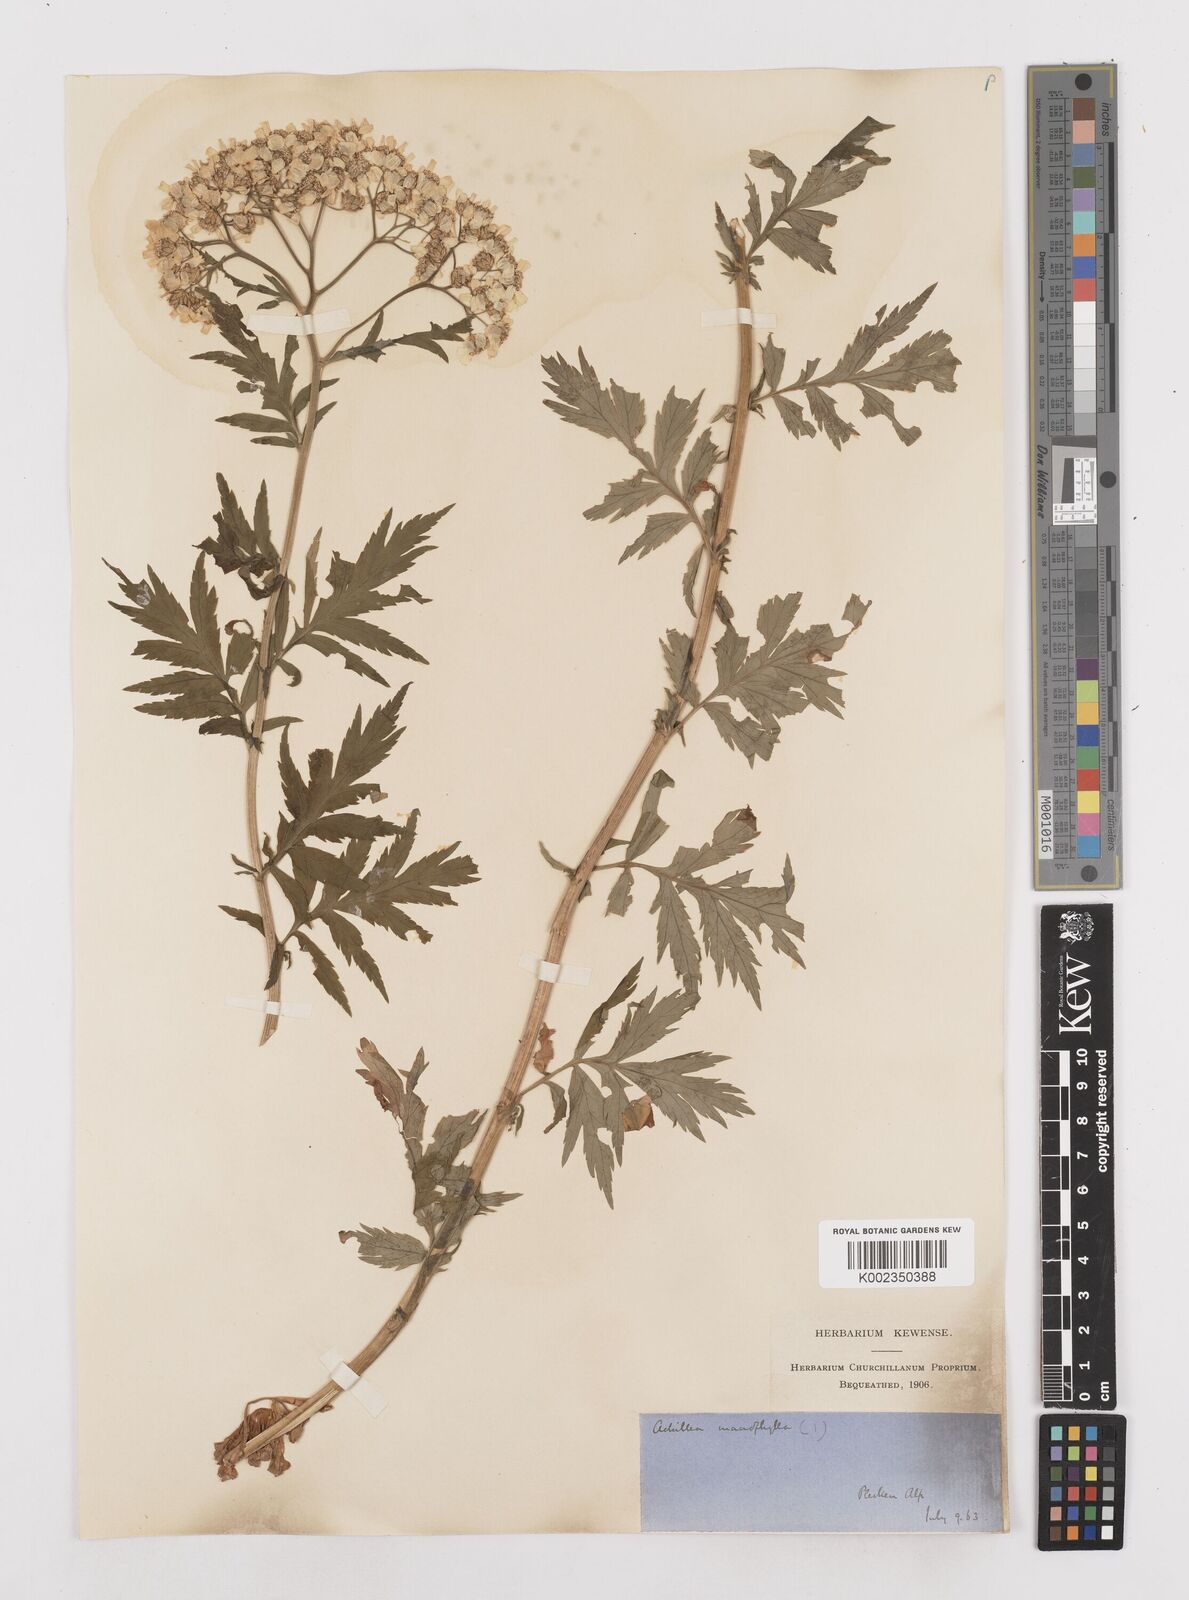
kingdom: Plantae
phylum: Tracheophyta
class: Magnoliopsida
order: Asterales
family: Asteraceae
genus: Achillea
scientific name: Achillea macrophylla
